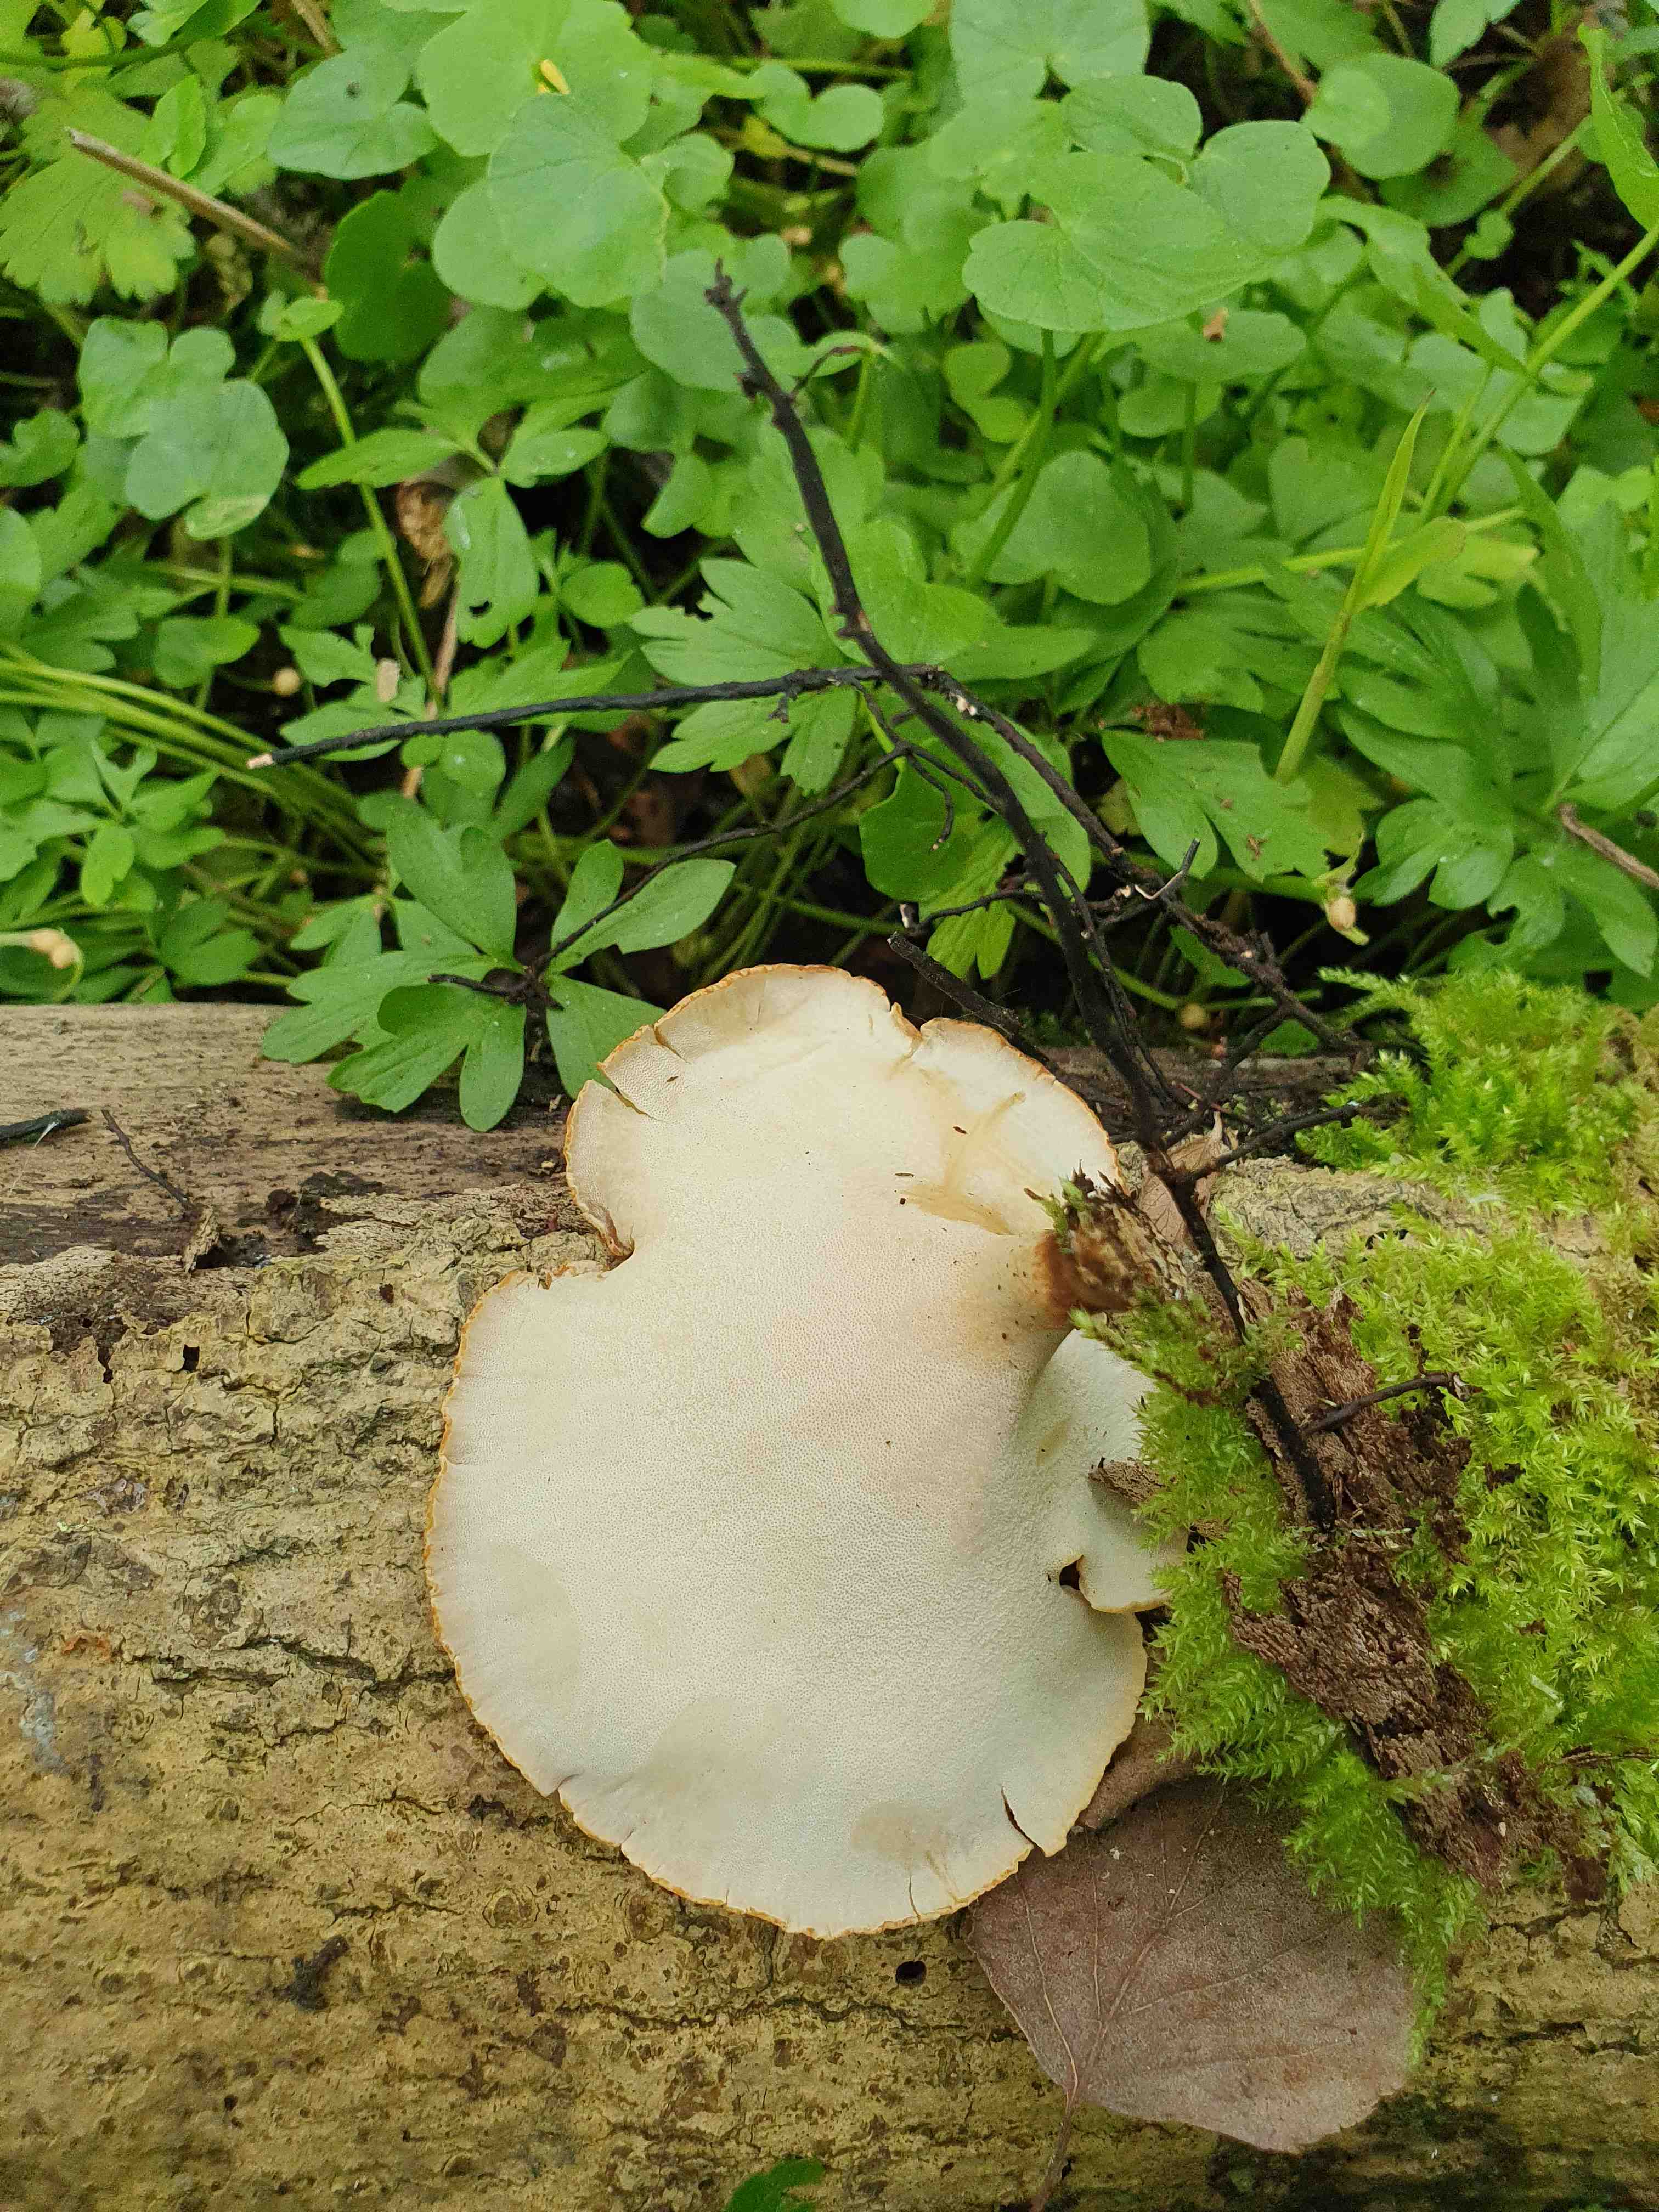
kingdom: Fungi
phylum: Basidiomycota
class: Agaricomycetes
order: Polyporales
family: Polyporaceae
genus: Cerioporus
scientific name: Cerioporus varius
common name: foranderlig stilkporesvamp
